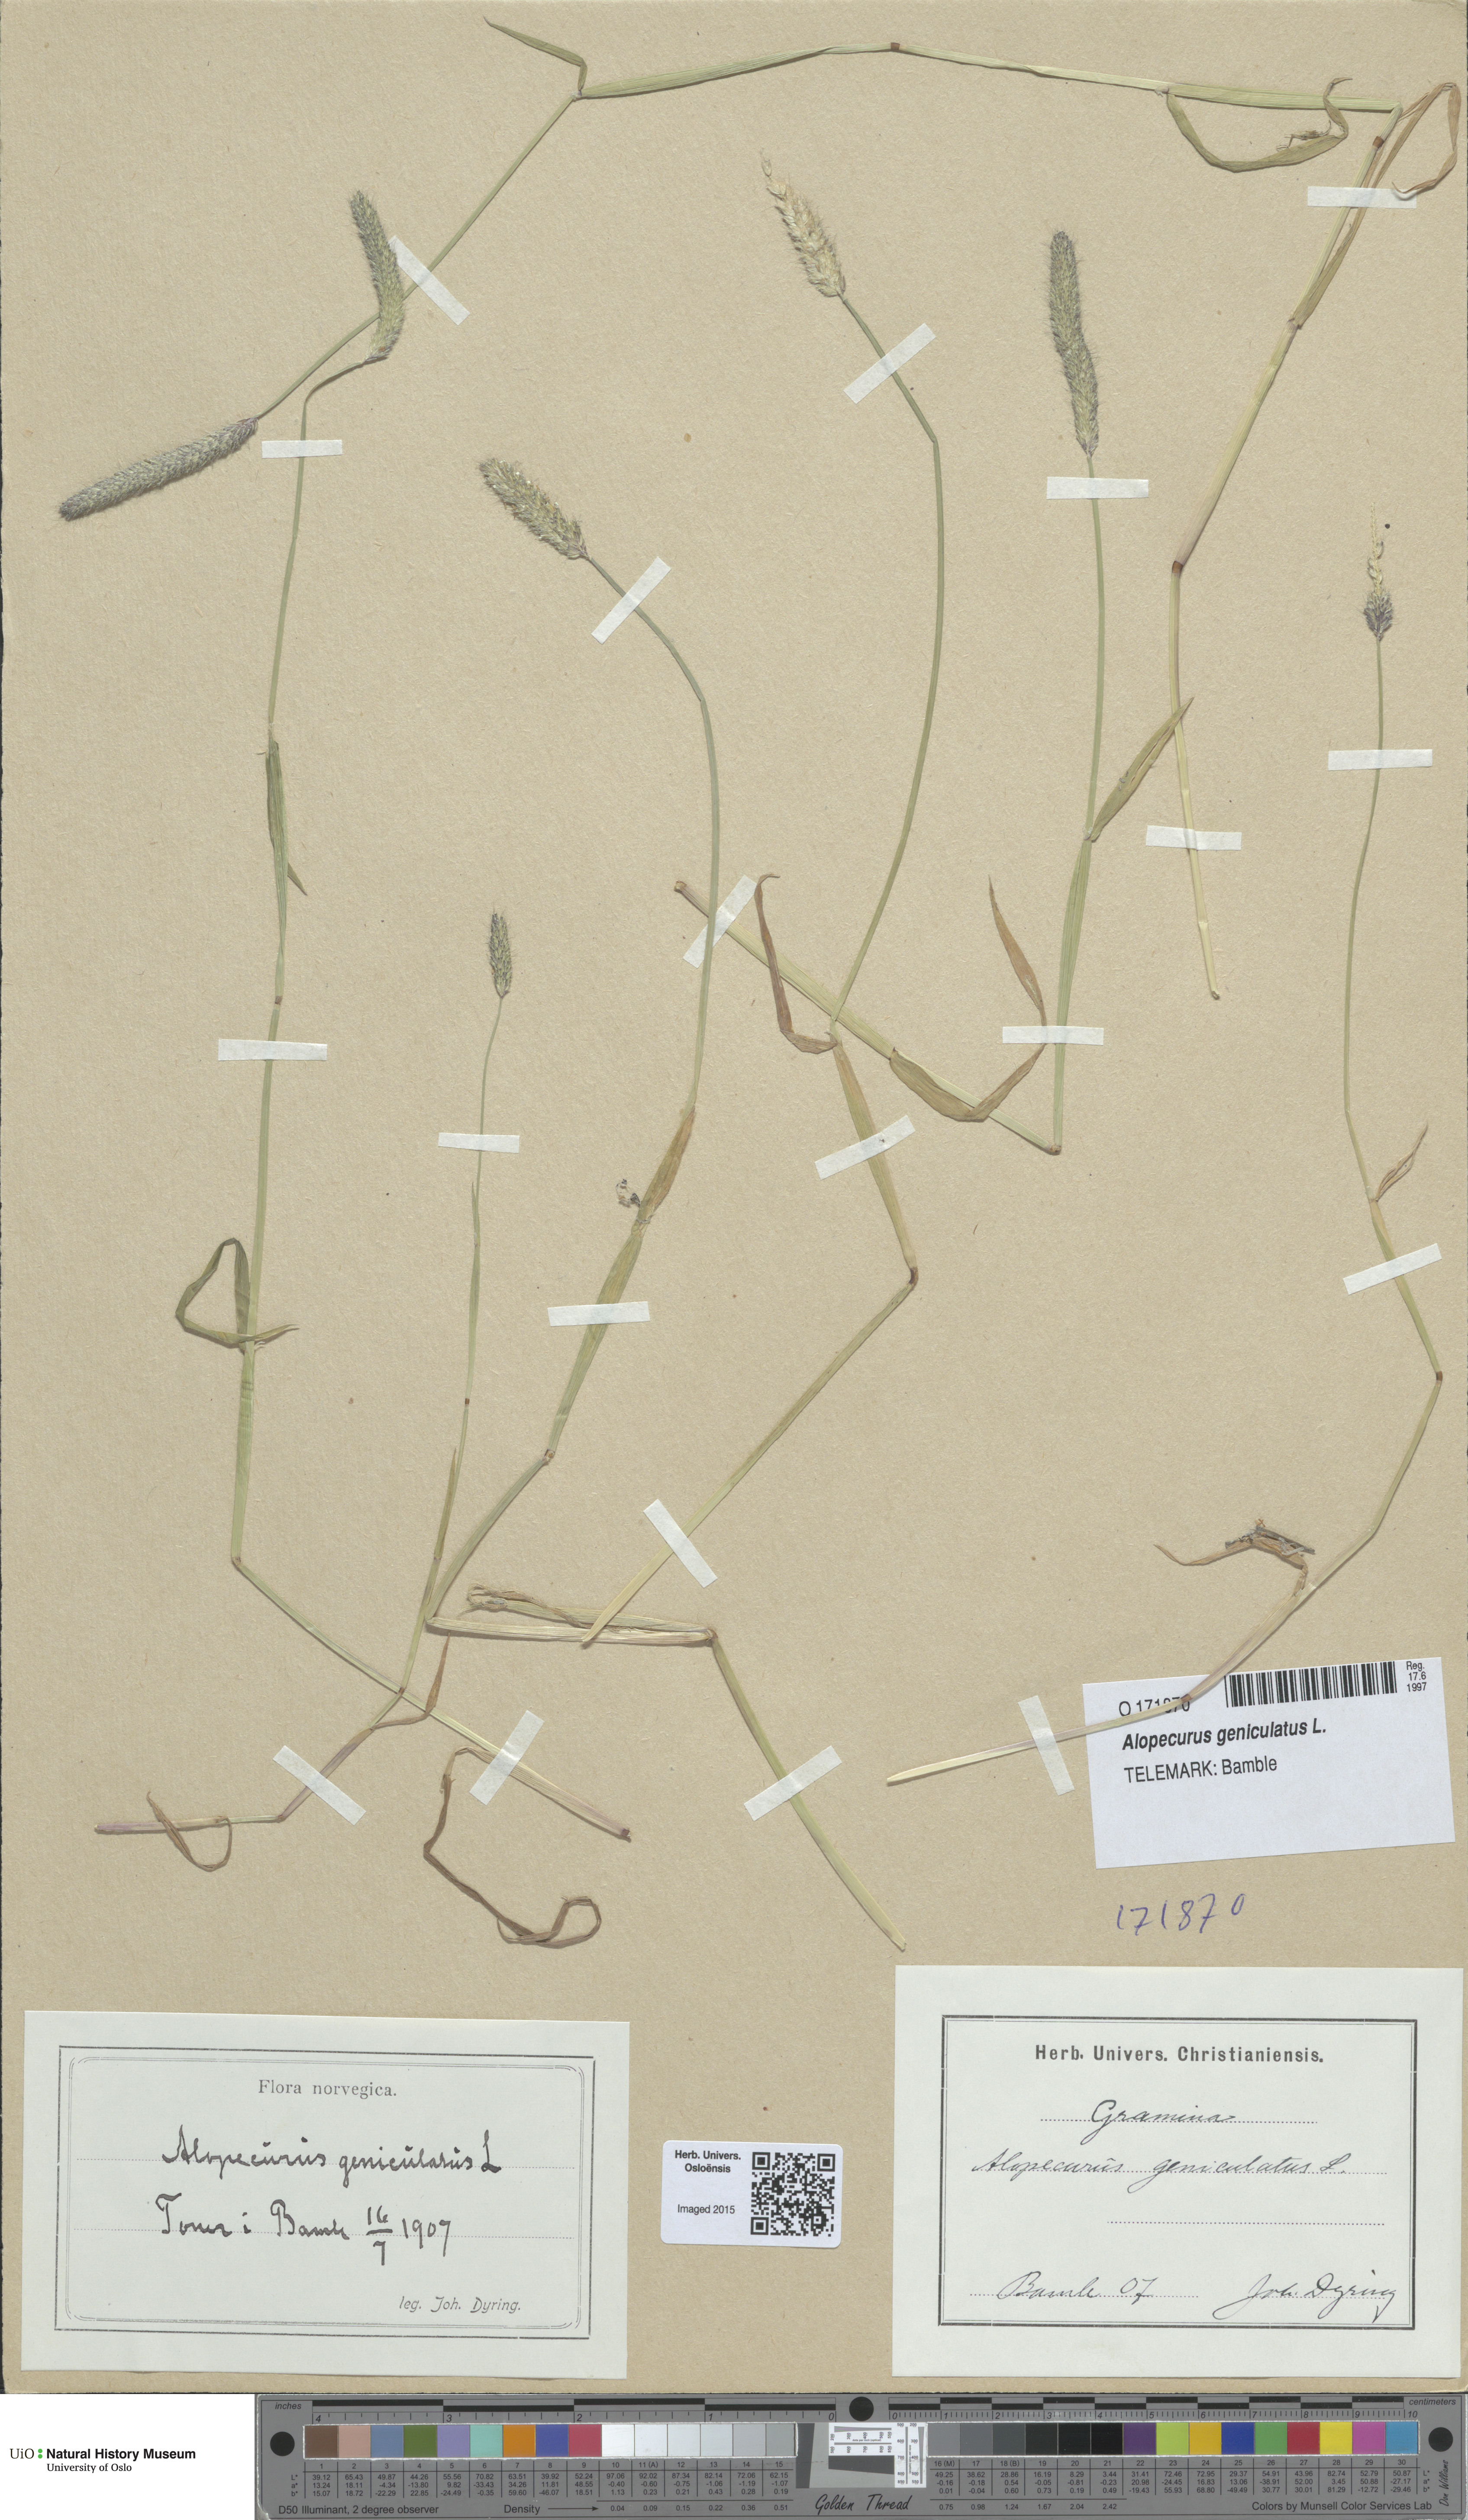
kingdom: Plantae
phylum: Tracheophyta
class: Liliopsida
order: Poales
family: Poaceae
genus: Alopecurus
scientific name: Alopecurus geniculatus
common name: Water foxtail
